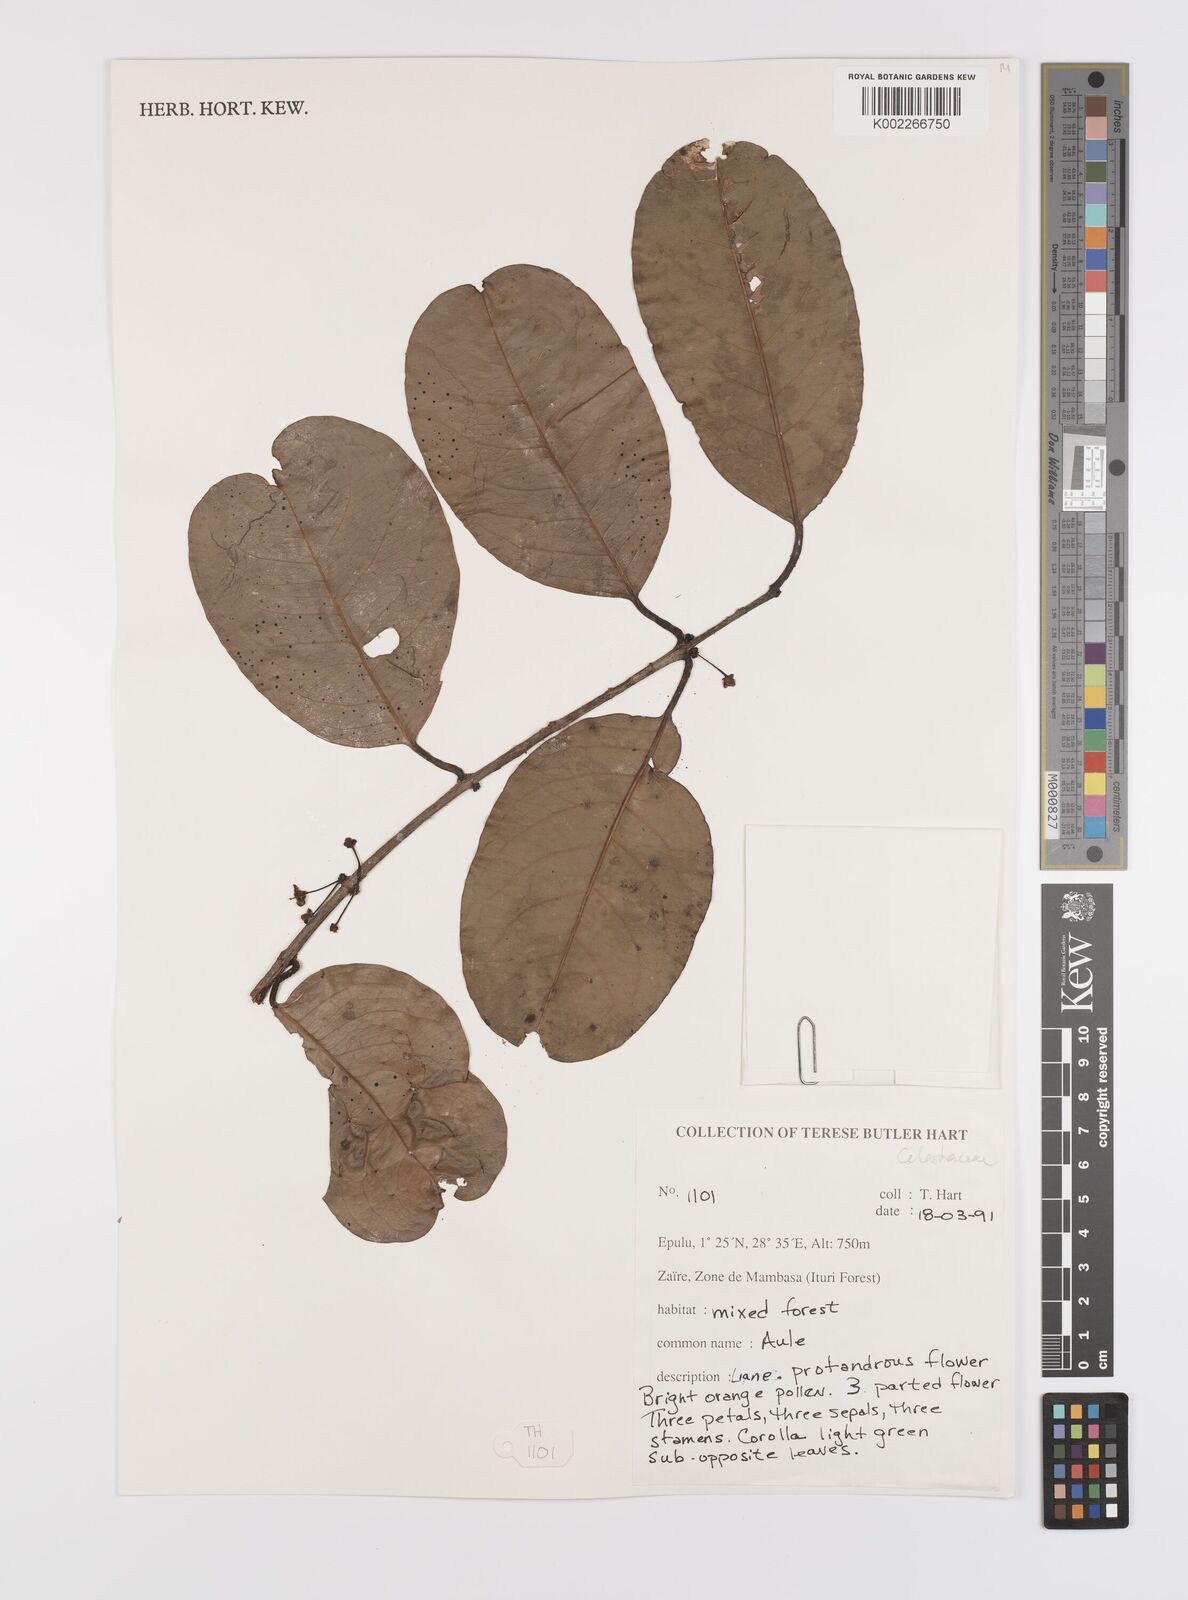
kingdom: Plantae
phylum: Tracheophyta
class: Magnoliopsida
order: Celastrales
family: Celastraceae
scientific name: Celastraceae
